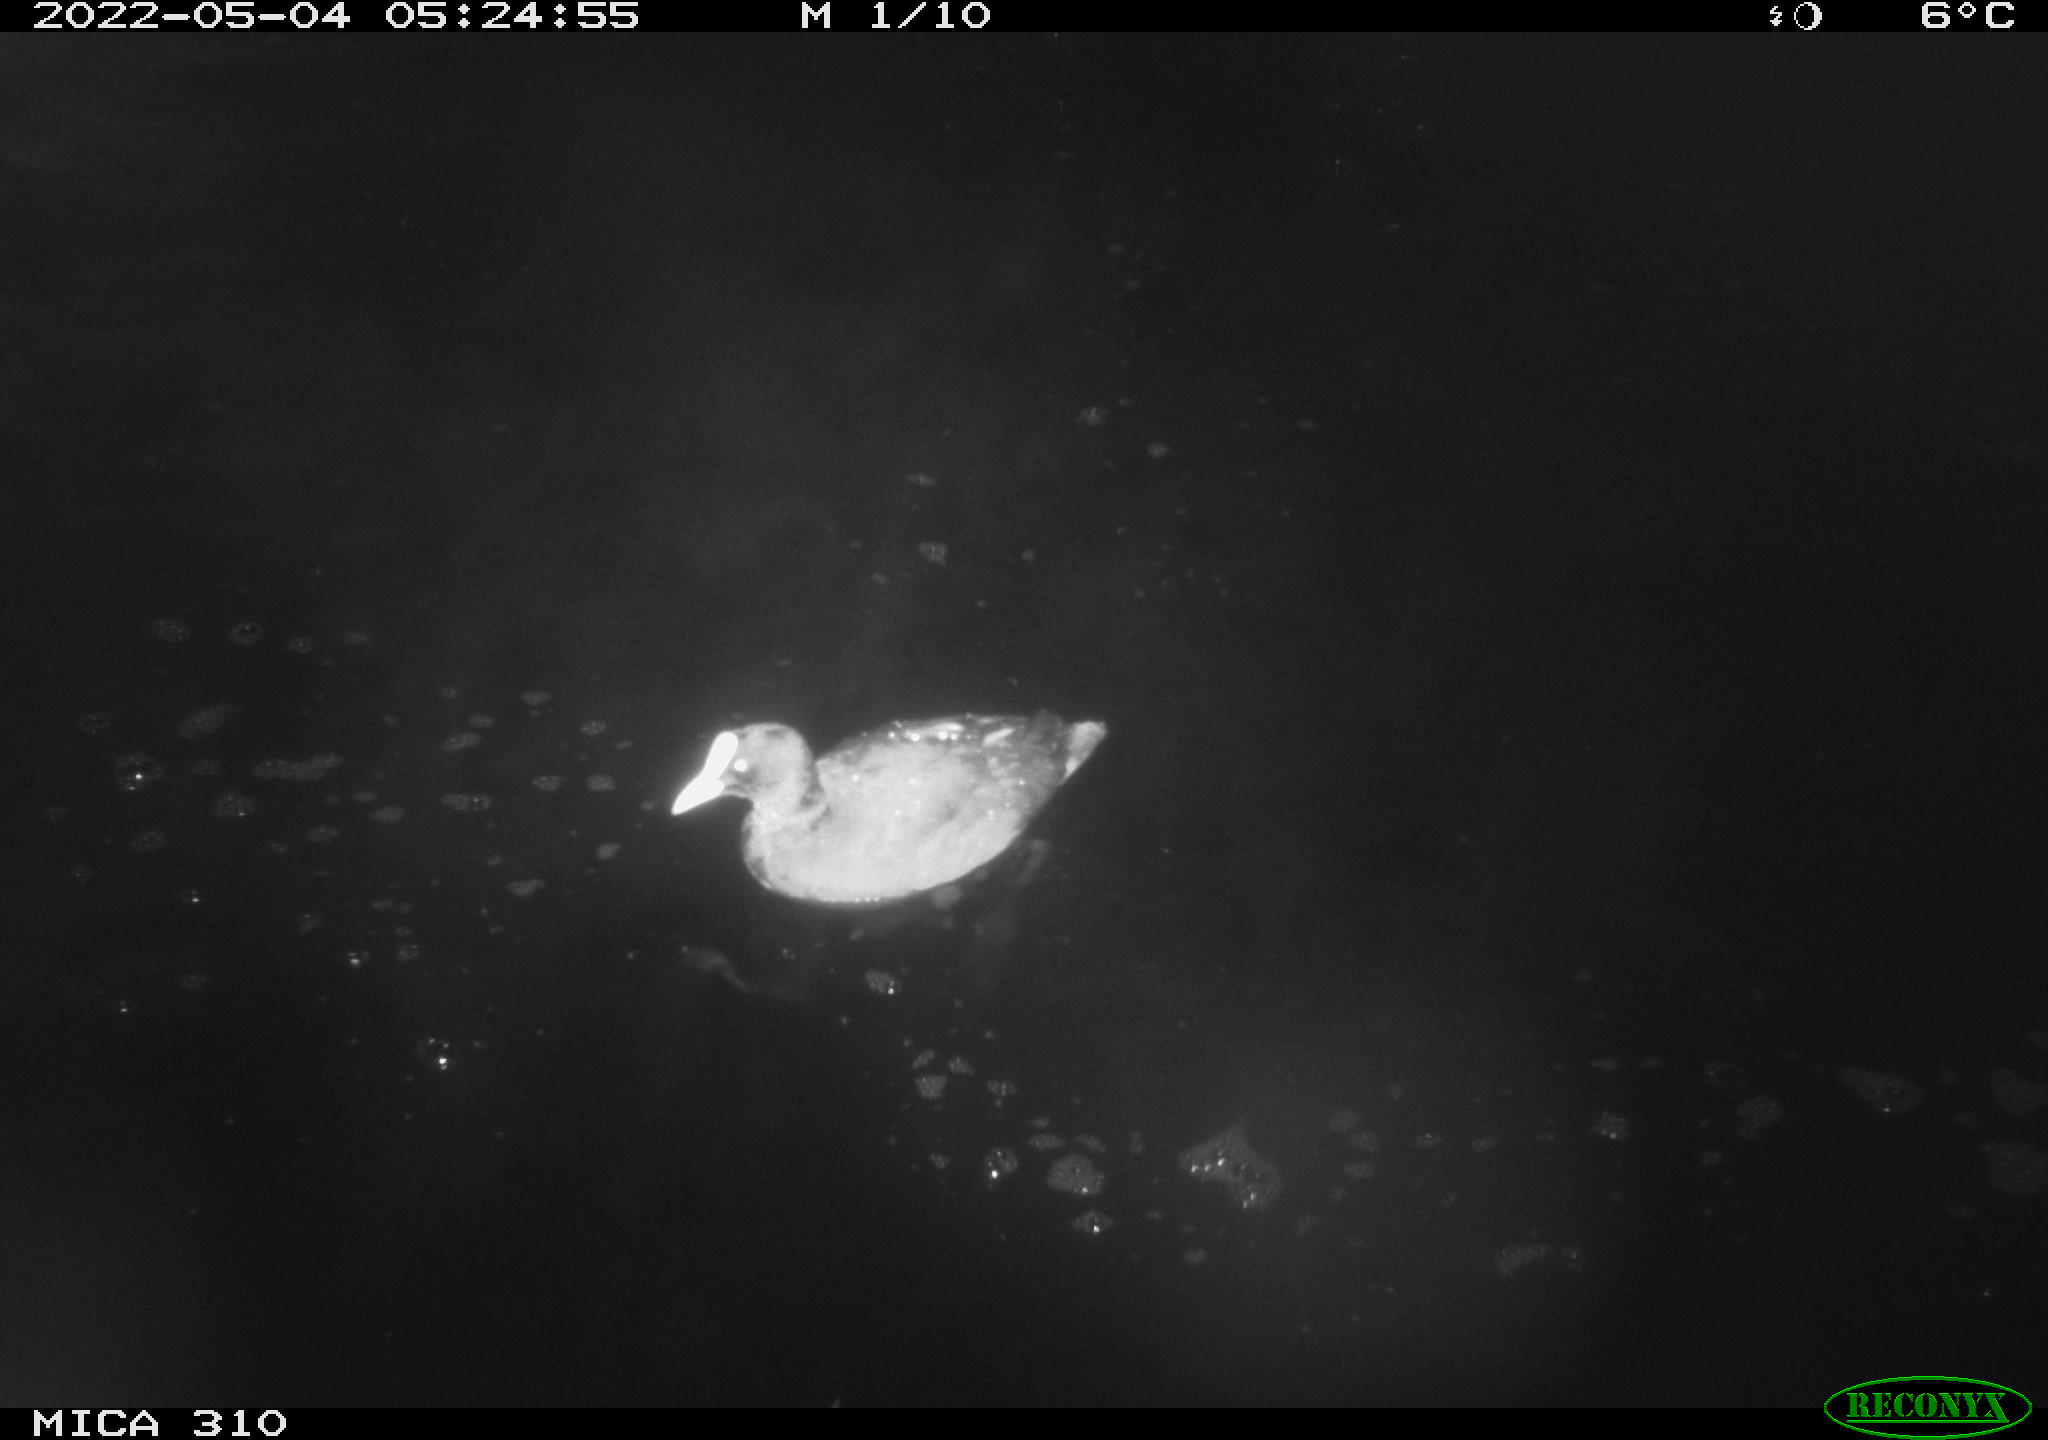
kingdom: Animalia
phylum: Chordata
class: Aves
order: Gruiformes
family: Rallidae
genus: Fulica
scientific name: Fulica atra
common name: Eurasian coot
